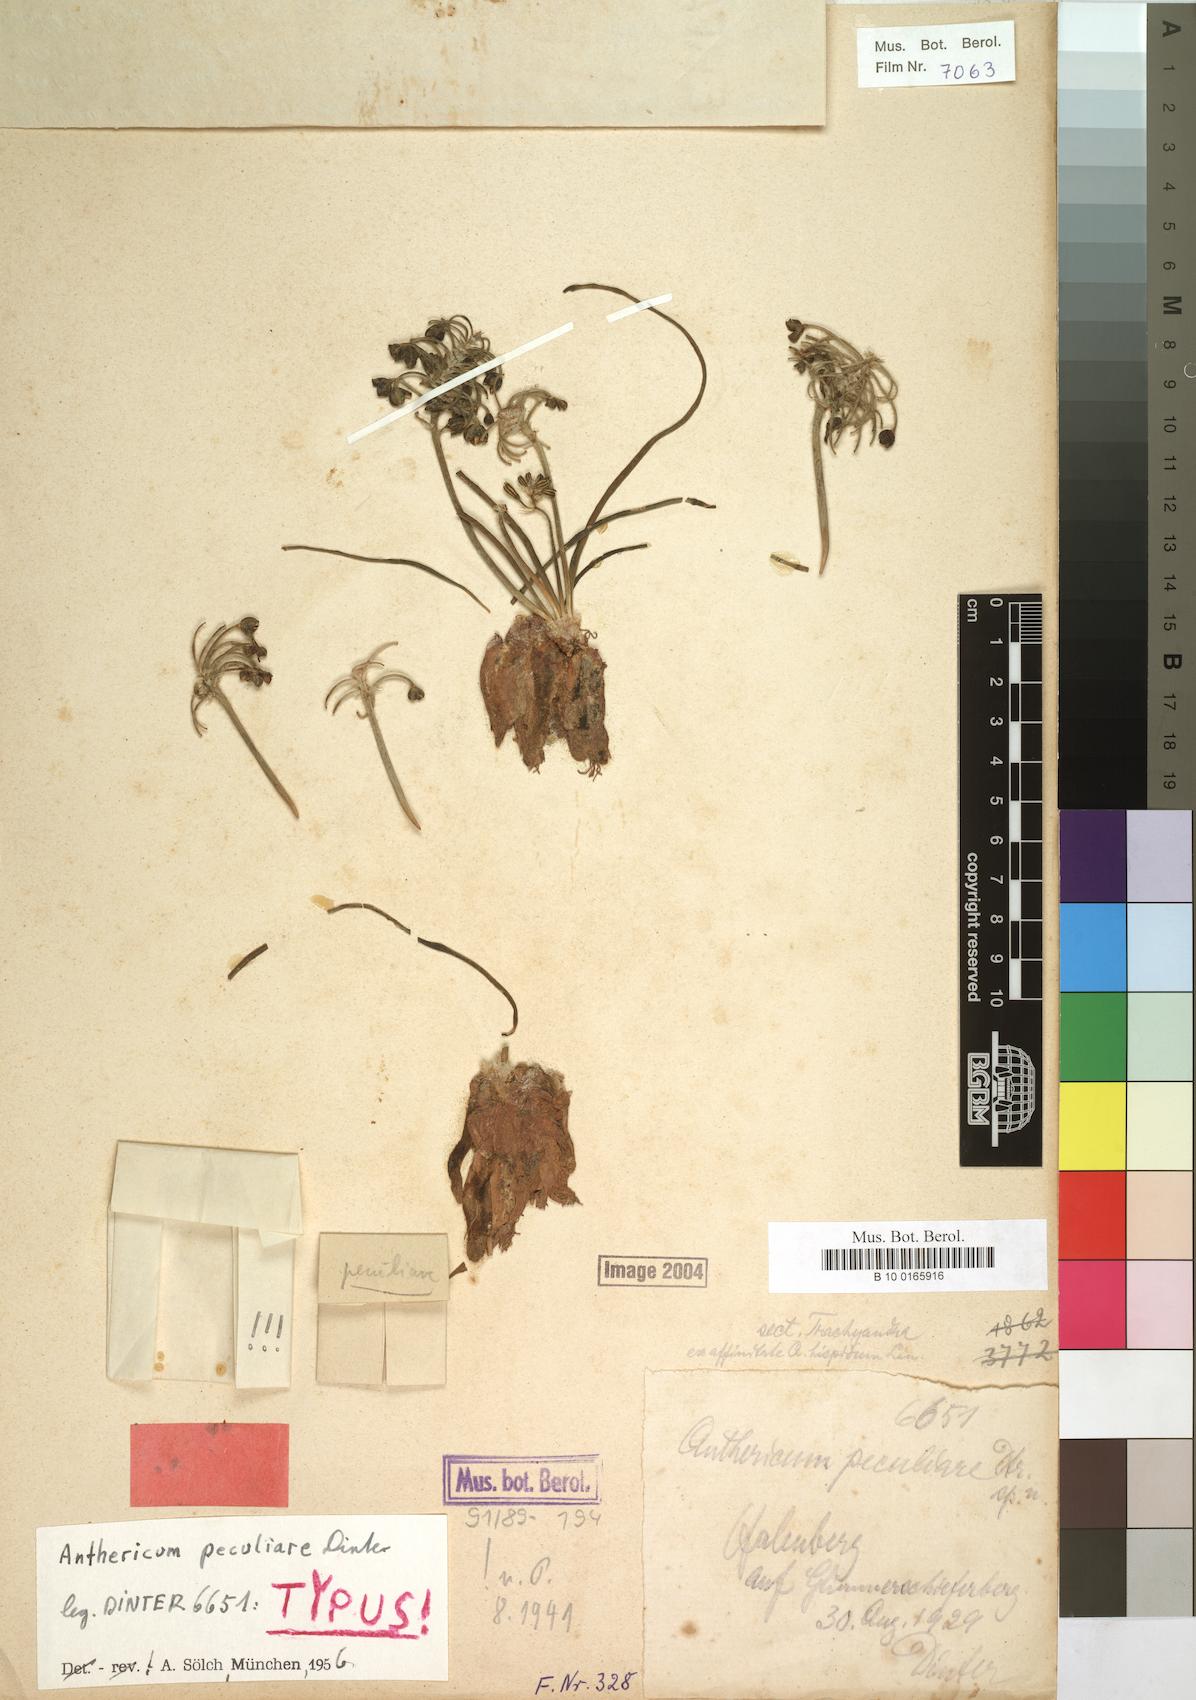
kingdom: Plantae
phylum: Tracheophyta
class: Liliopsida
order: Asparagales
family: Asphodelaceae
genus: Trachyandra
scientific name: Trachyandra peculiaris
